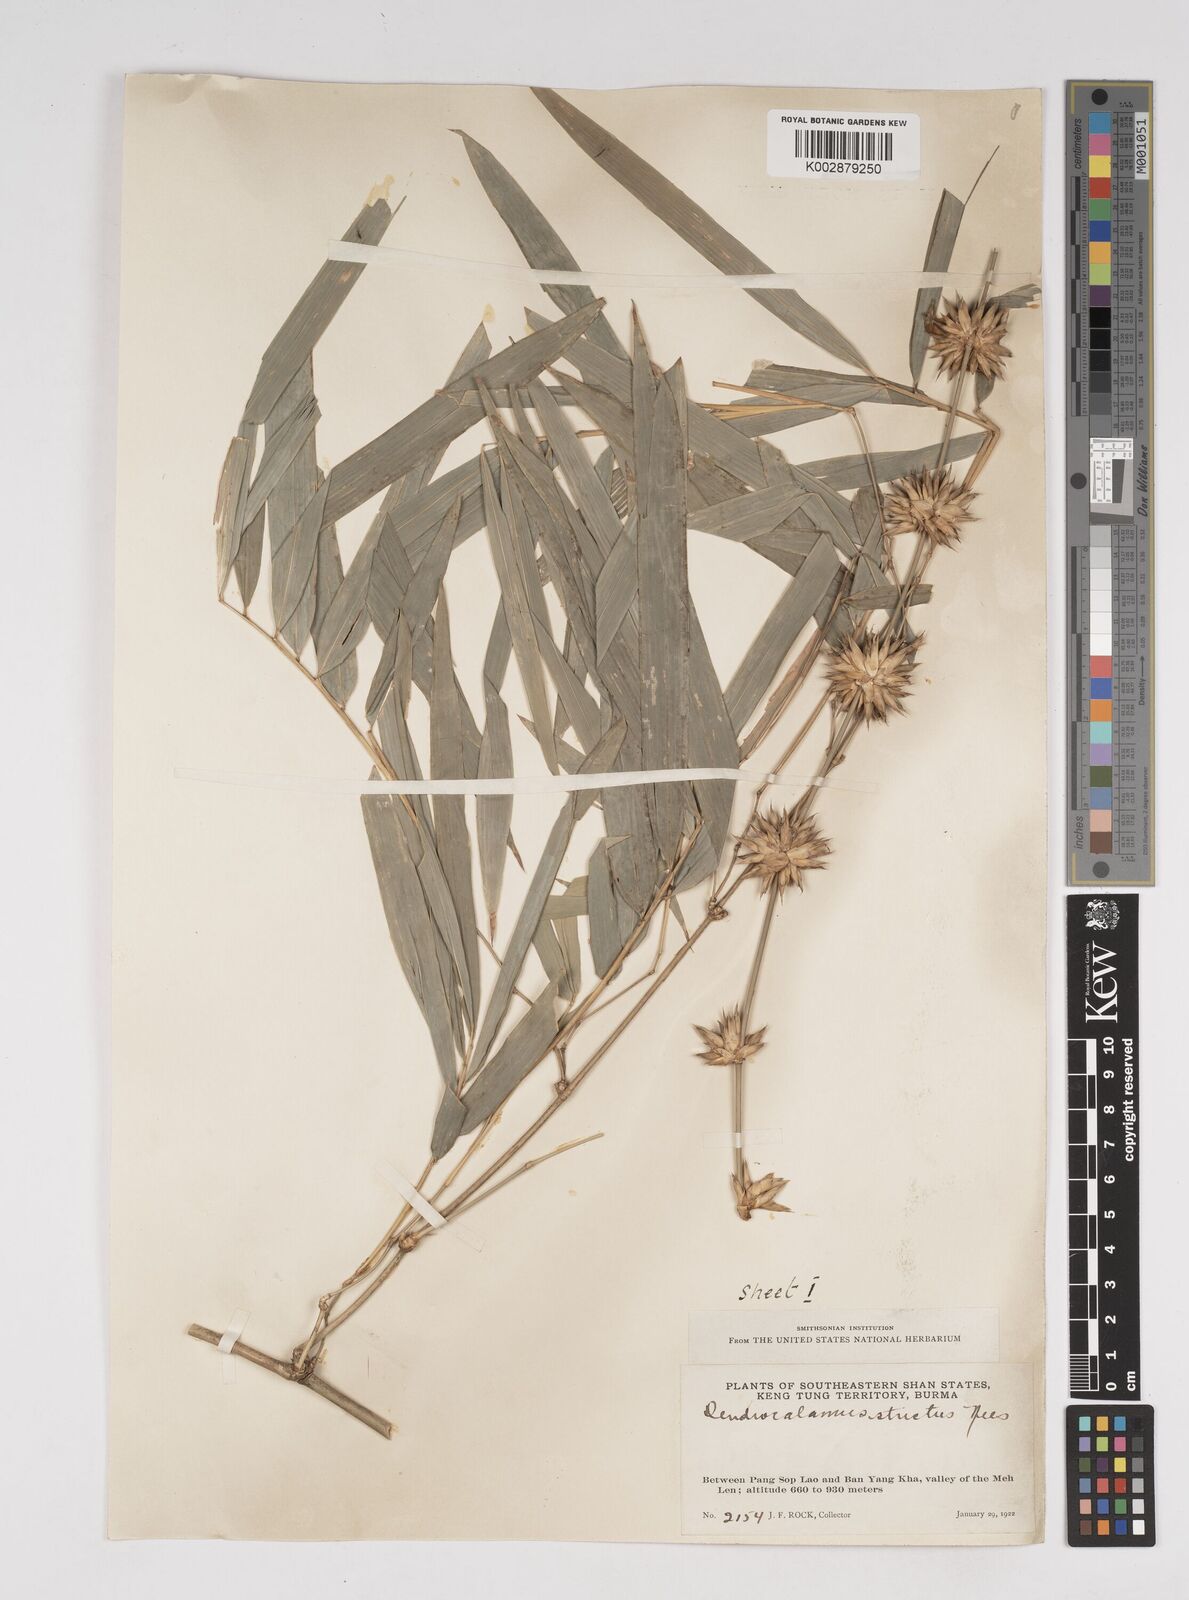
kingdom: Plantae
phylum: Tracheophyta
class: Liliopsida
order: Poales
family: Poaceae
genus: Dendrocalamus
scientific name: Dendrocalamus strictus
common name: Male bamboo
